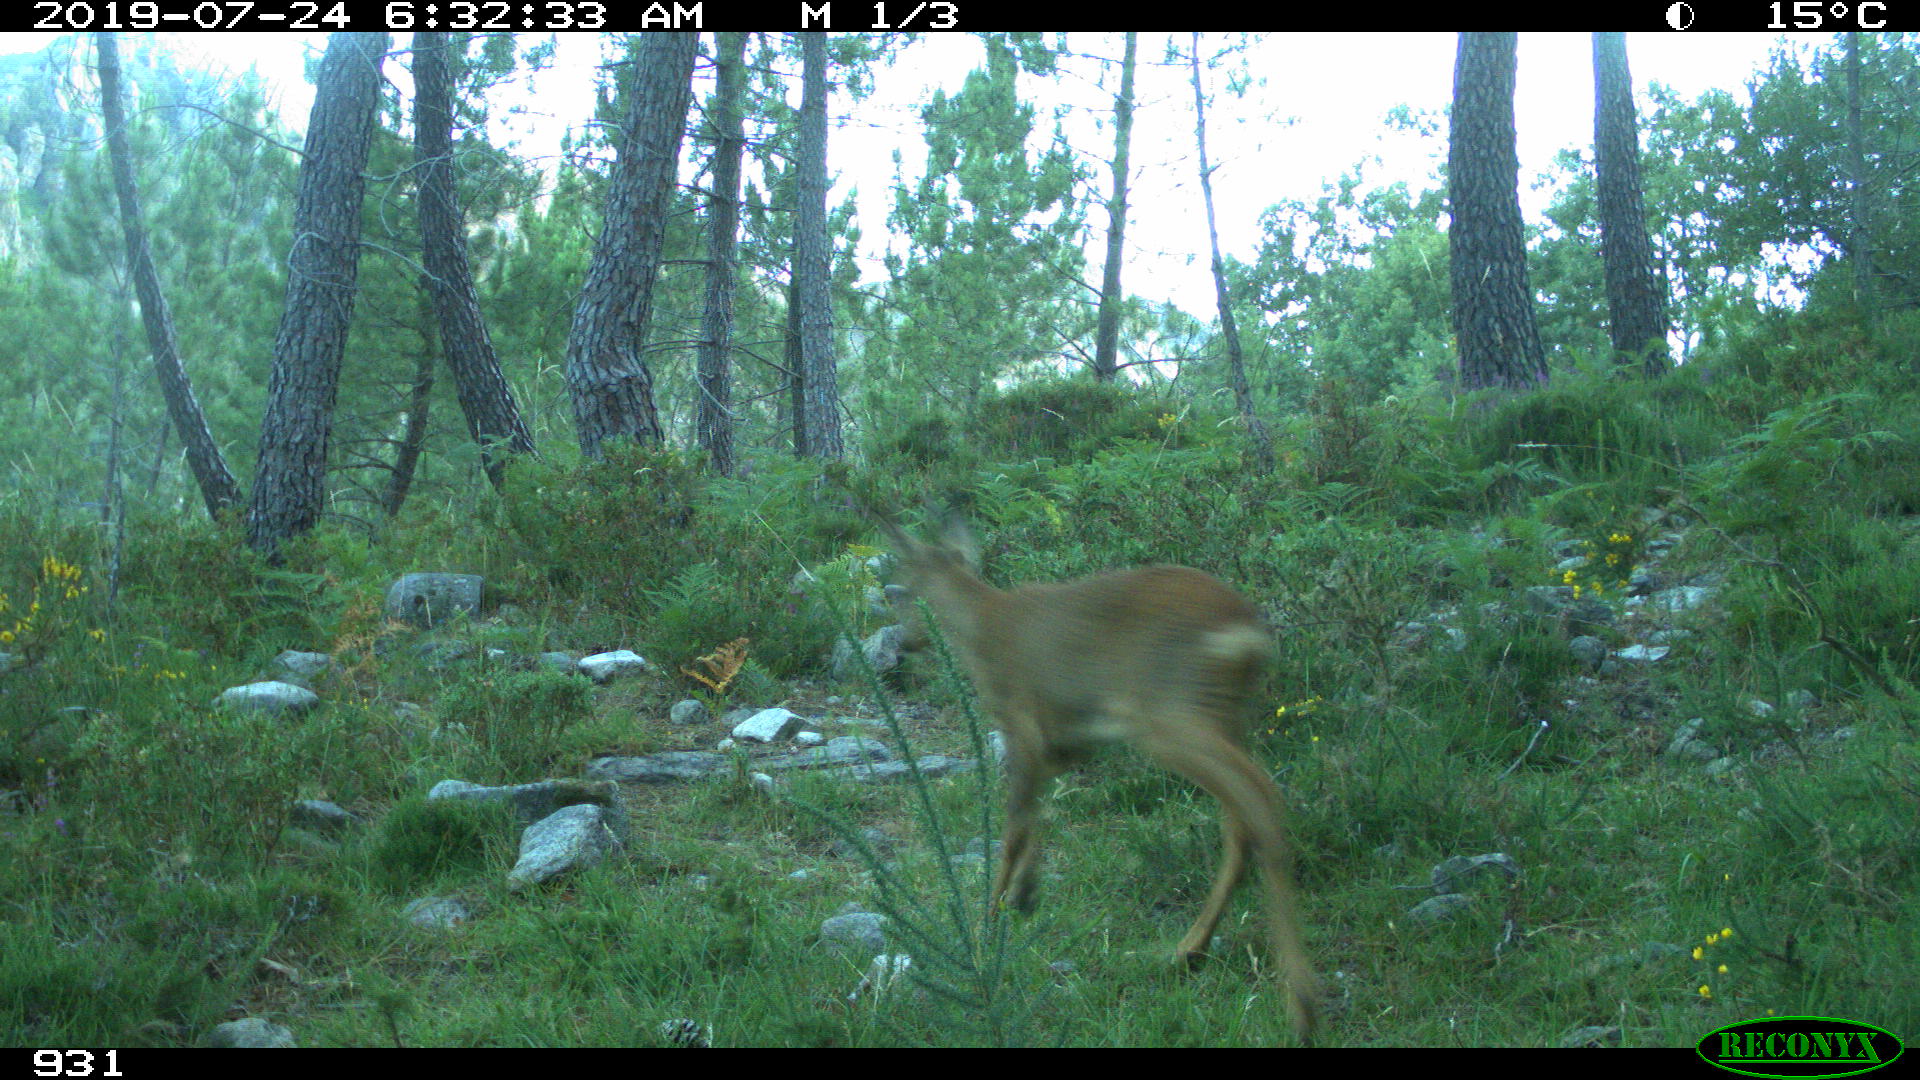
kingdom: Animalia
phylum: Chordata
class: Mammalia
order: Artiodactyla
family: Cervidae
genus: Capreolus
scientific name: Capreolus capreolus
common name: Western roe deer
